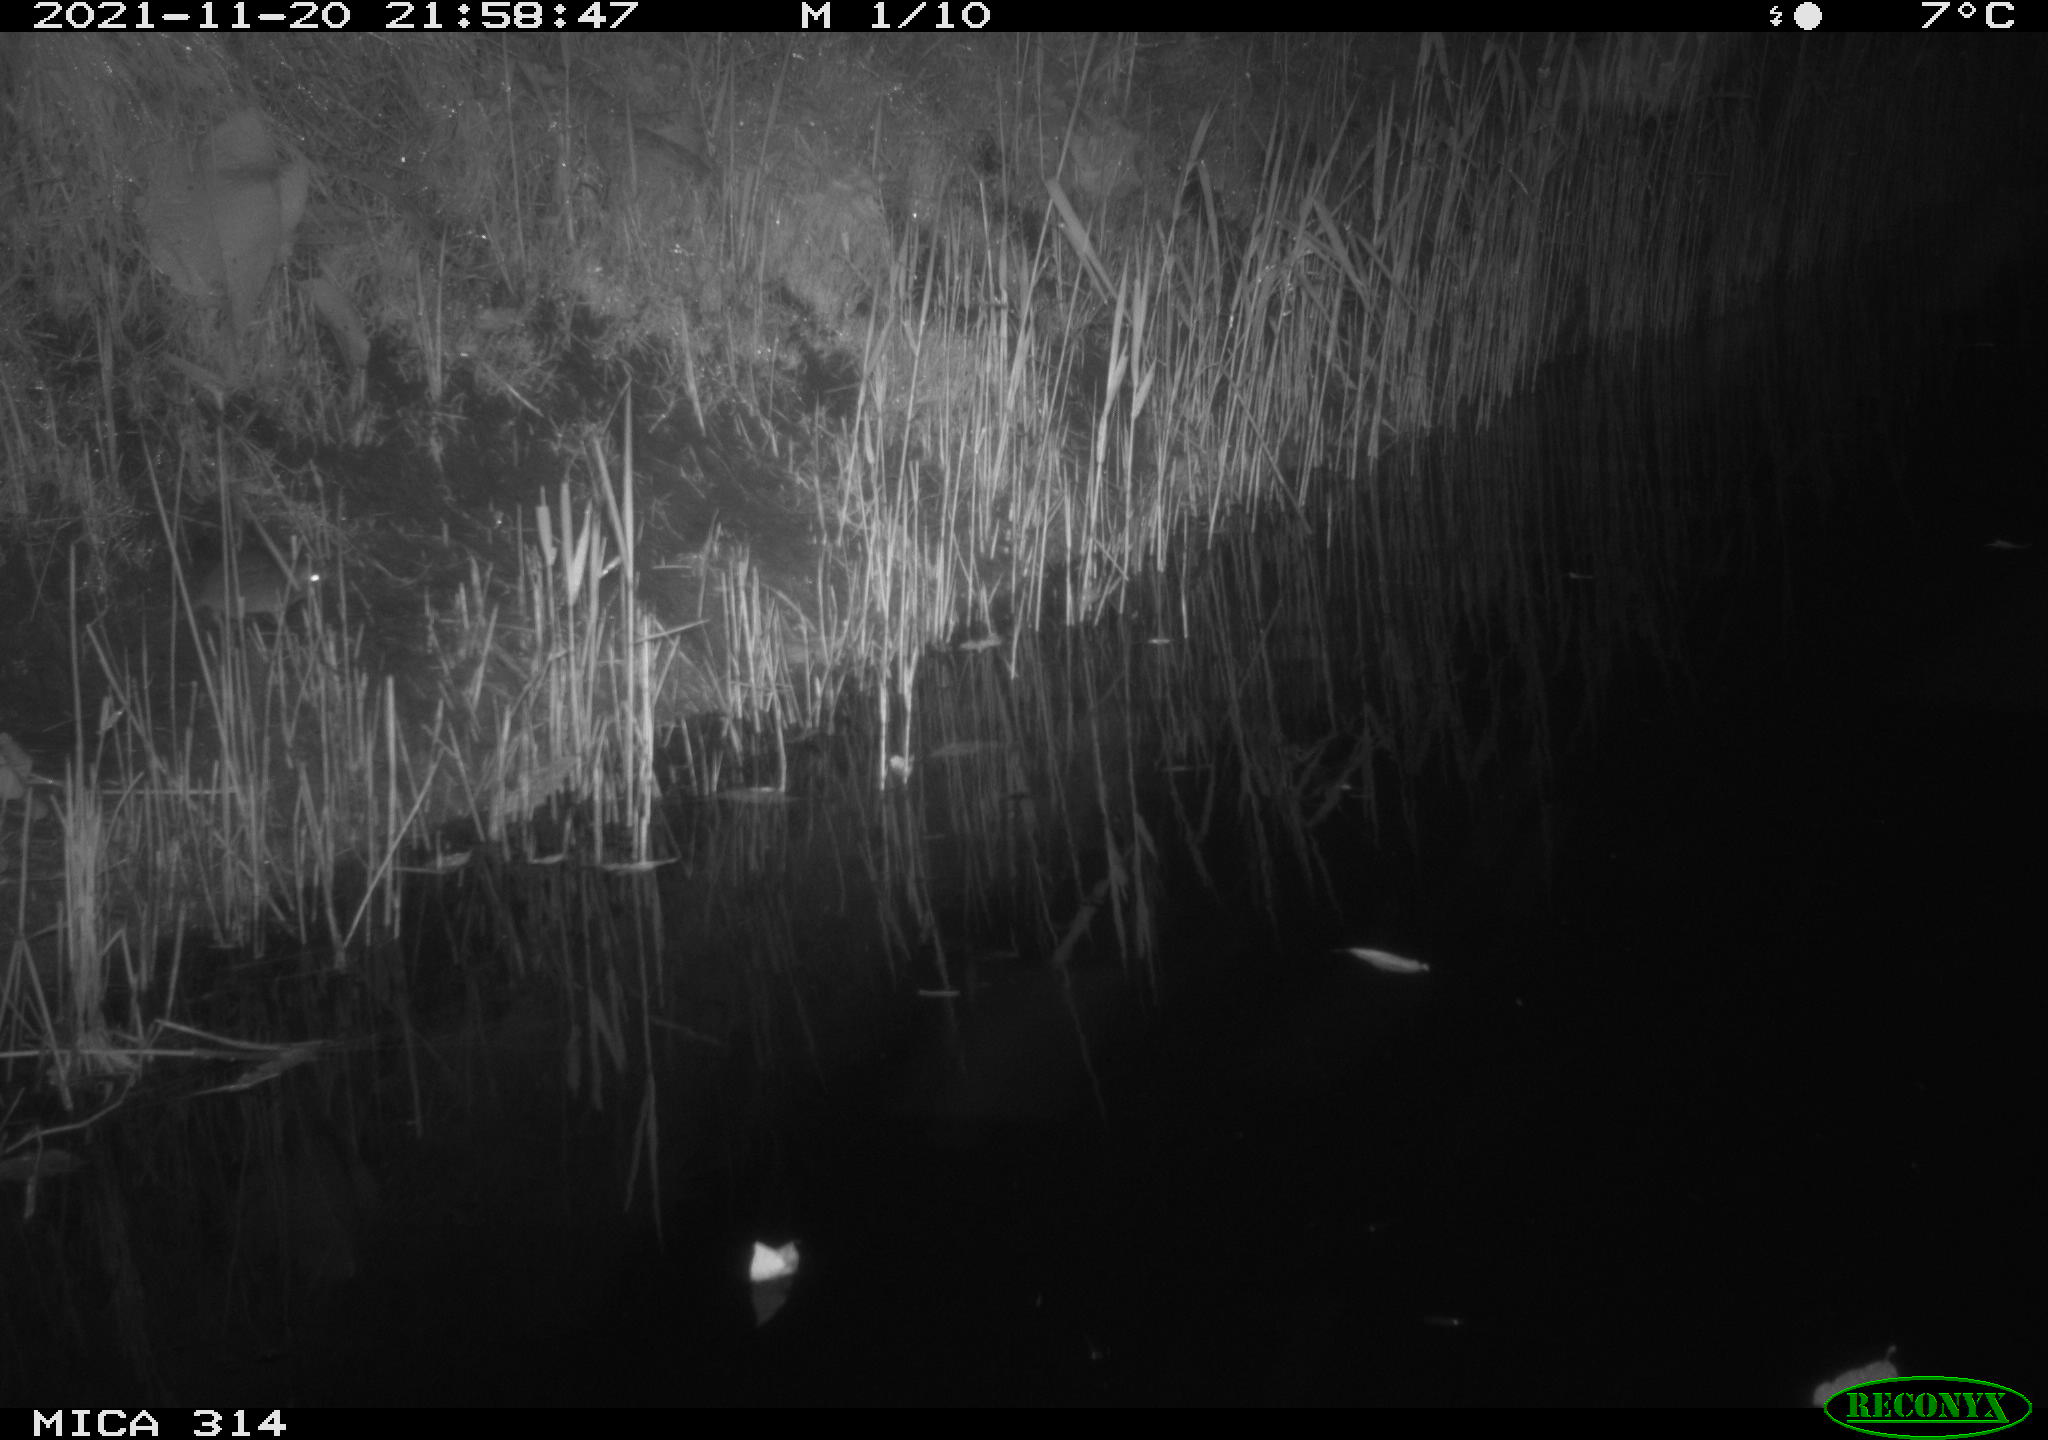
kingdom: Animalia
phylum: Chordata
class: Mammalia
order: Rodentia
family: Muridae
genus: Rattus
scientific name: Rattus norvegicus
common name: Brown rat
